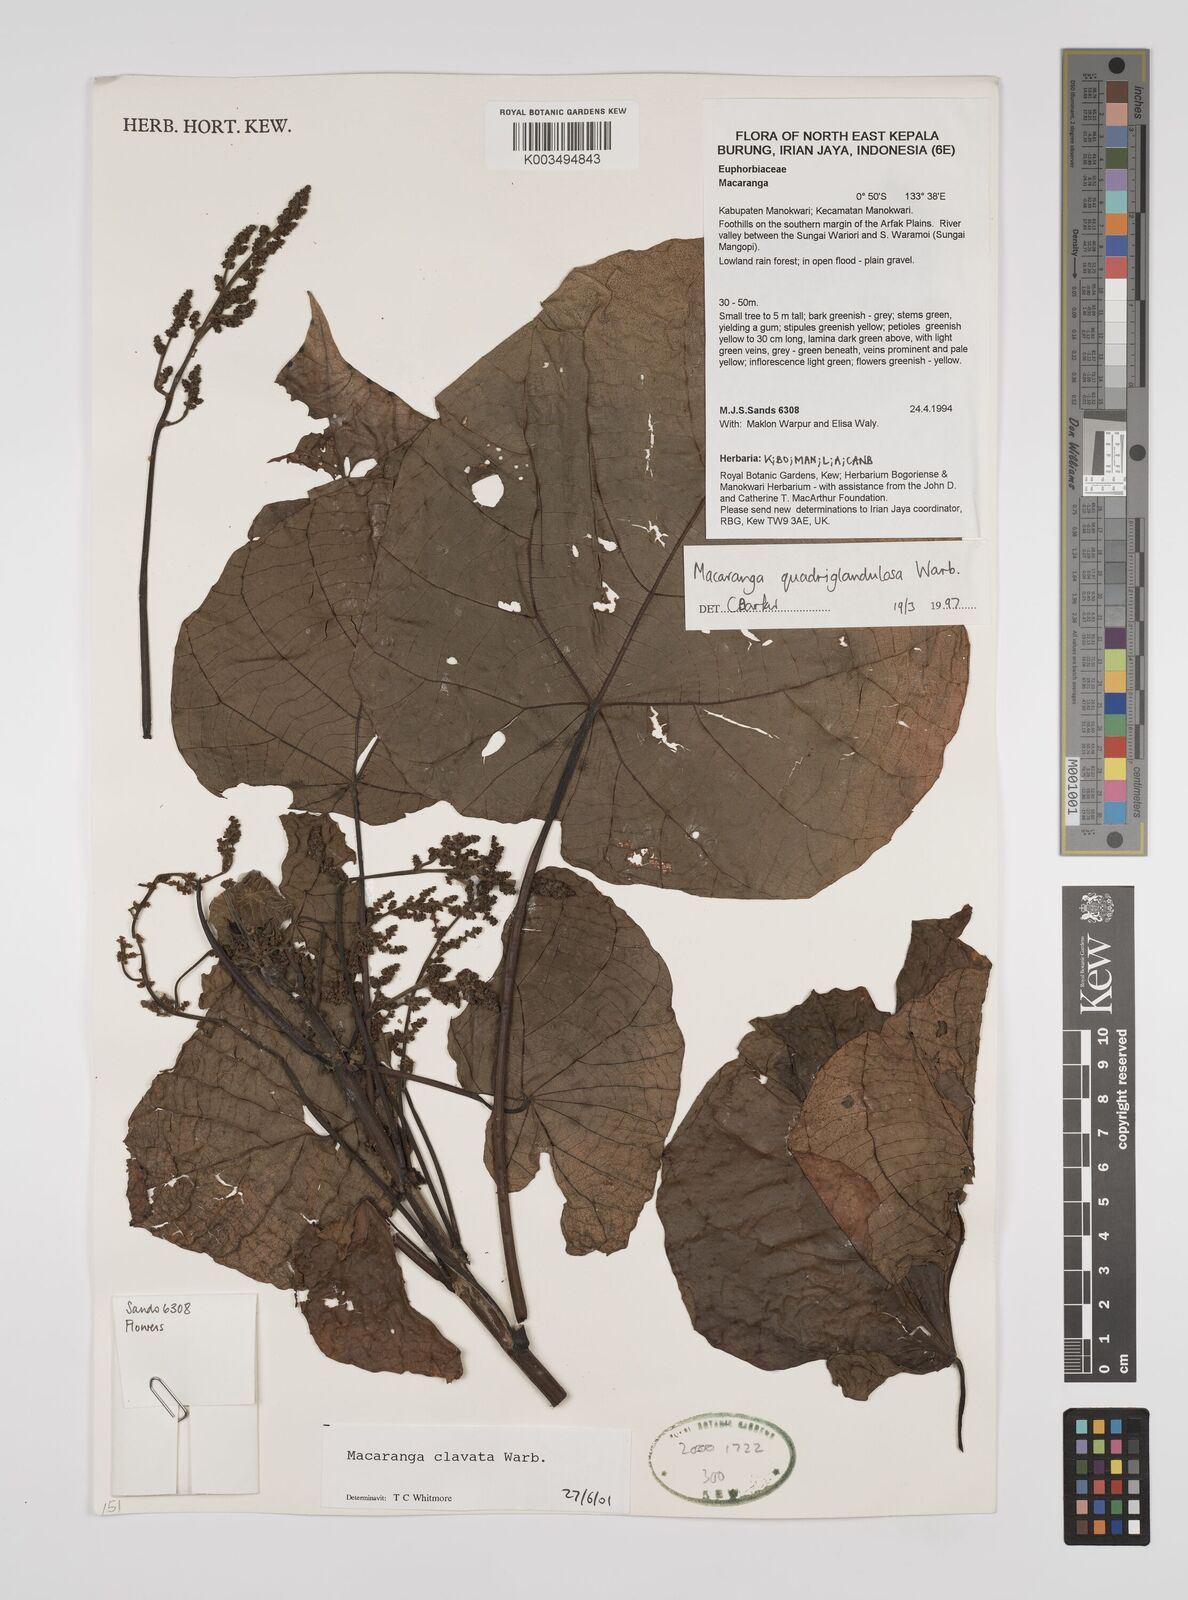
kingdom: Plantae
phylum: Tracheophyta
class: Magnoliopsida
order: Malpighiales
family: Euphorbiaceae
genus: Macaranga
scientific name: Macaranga clavata
